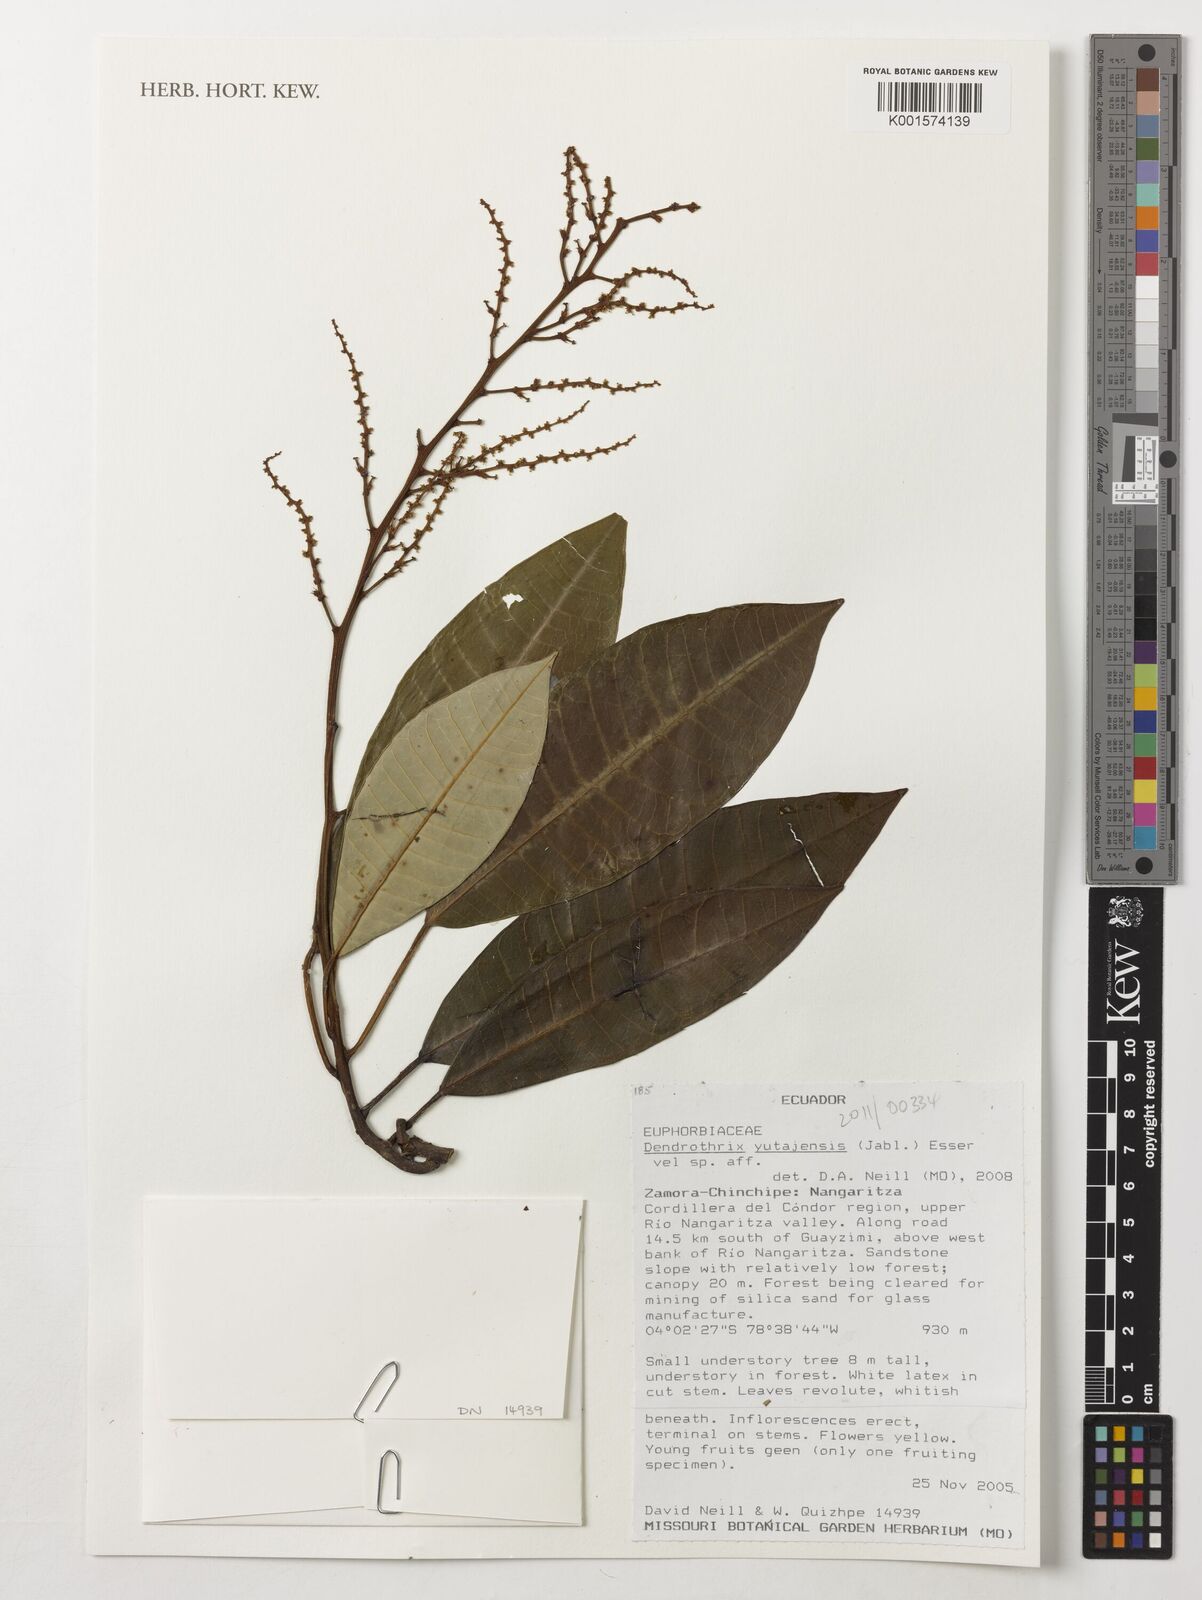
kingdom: Plantae
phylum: Tracheophyta
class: Magnoliopsida
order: Malpighiales
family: Euphorbiaceae
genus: Dendrothrix
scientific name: Dendrothrix yutajensis
